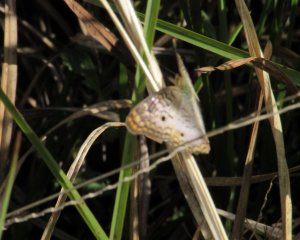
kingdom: Animalia
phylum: Arthropoda
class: Insecta
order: Lepidoptera
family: Nymphalidae
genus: Anartia
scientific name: Anartia jatrophae
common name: White Peacock
